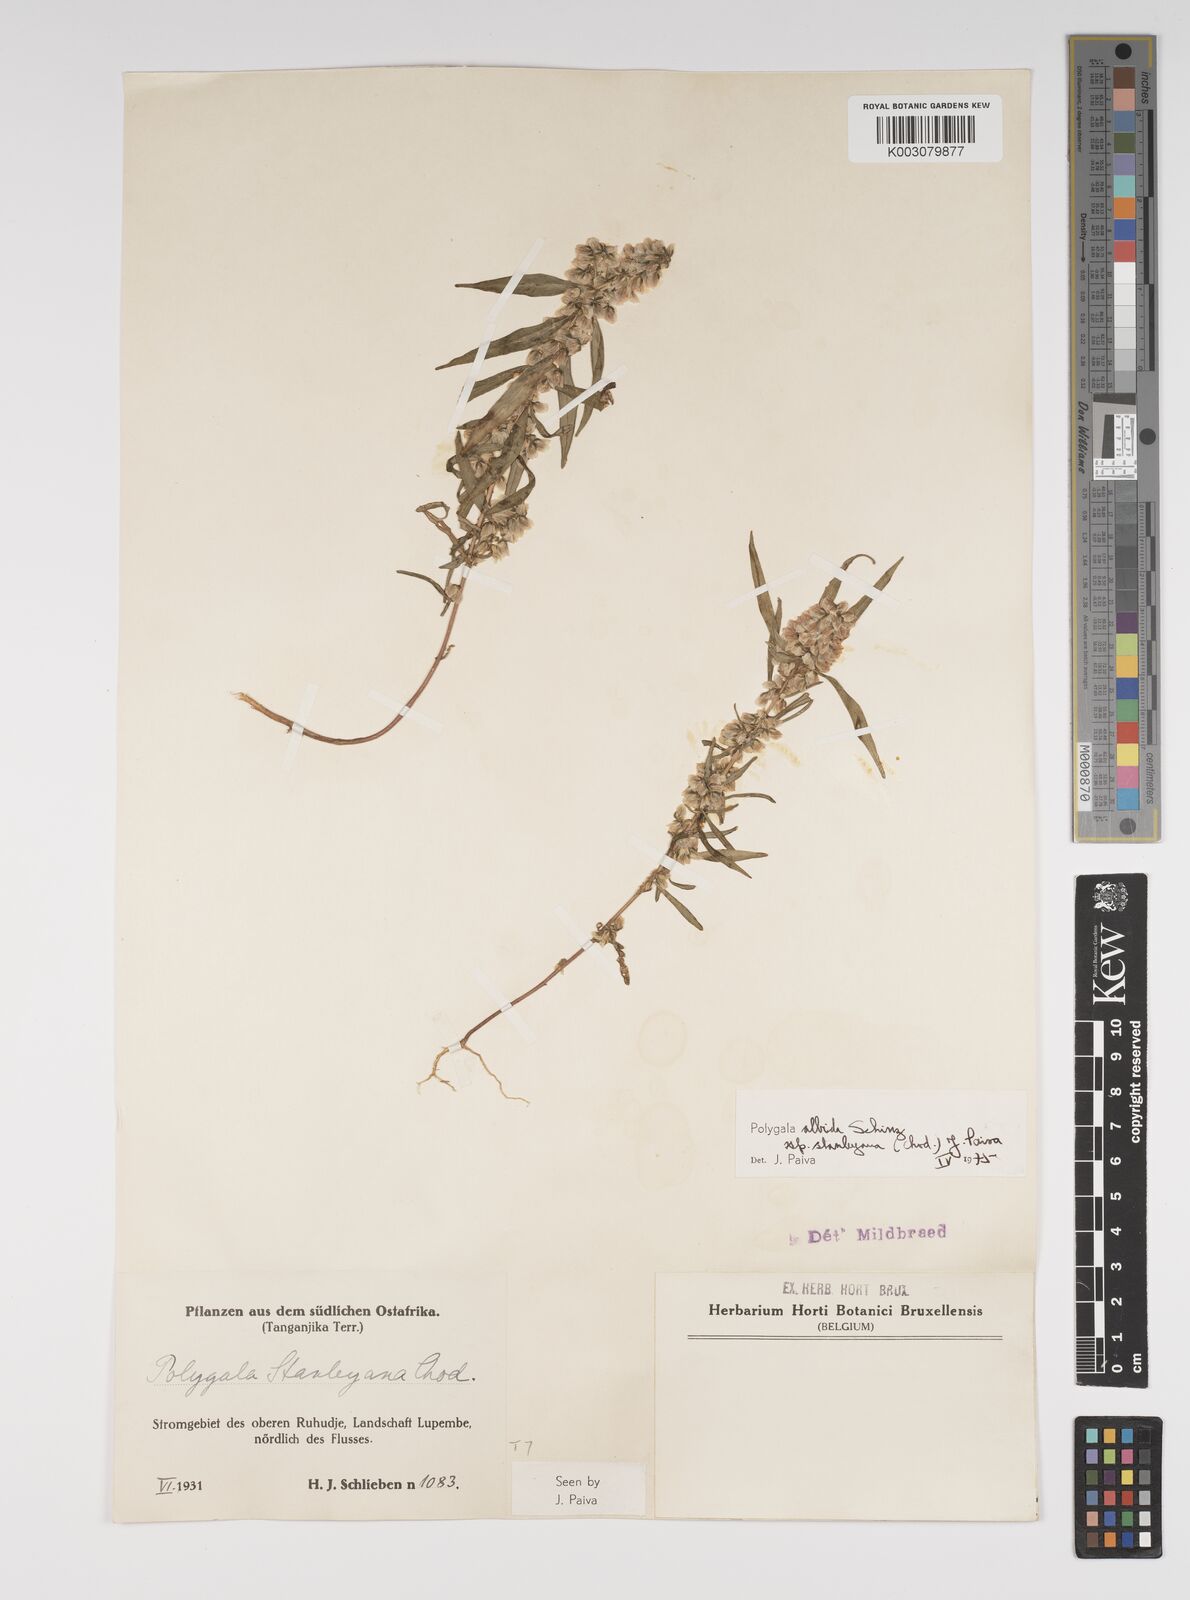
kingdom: Plantae
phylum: Tracheophyta
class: Magnoliopsida
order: Fabales
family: Polygalaceae
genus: Polygala
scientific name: Polygala albida
